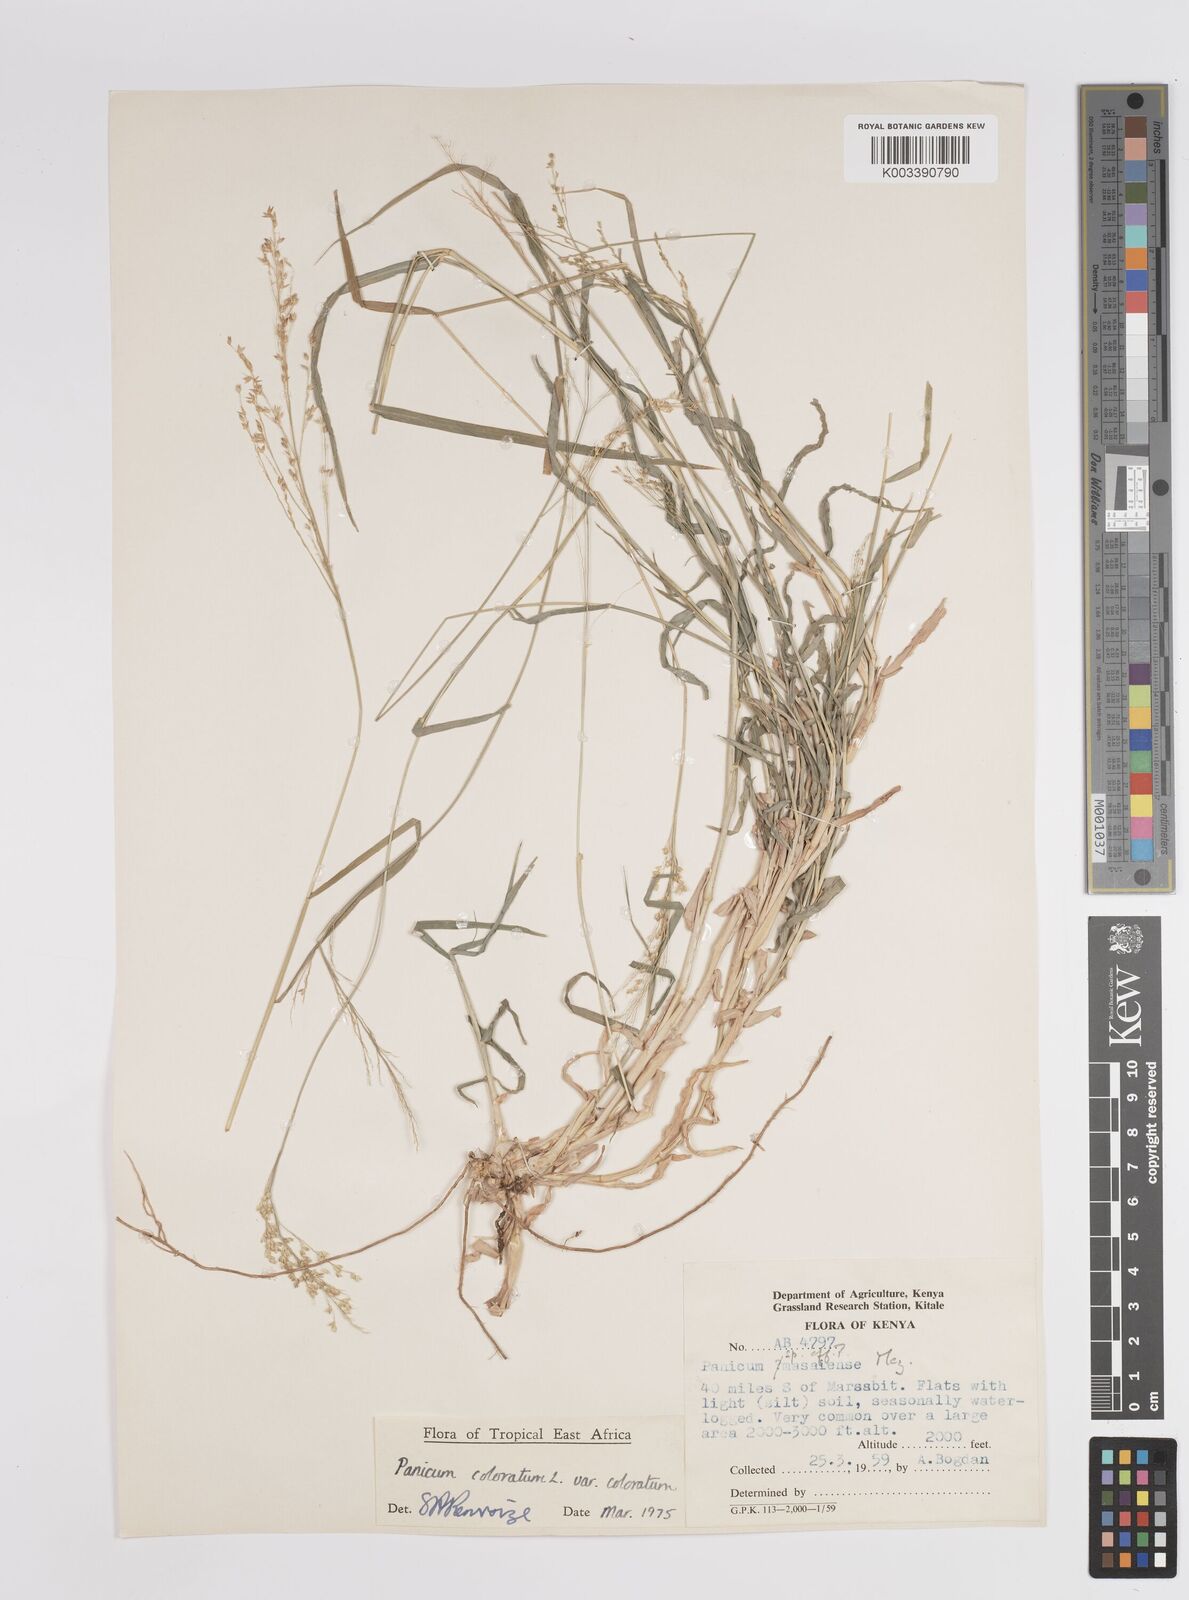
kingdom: Plantae
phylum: Tracheophyta
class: Liliopsida
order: Poales
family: Poaceae
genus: Panicum
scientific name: Panicum coloratum
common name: Kleingrass
